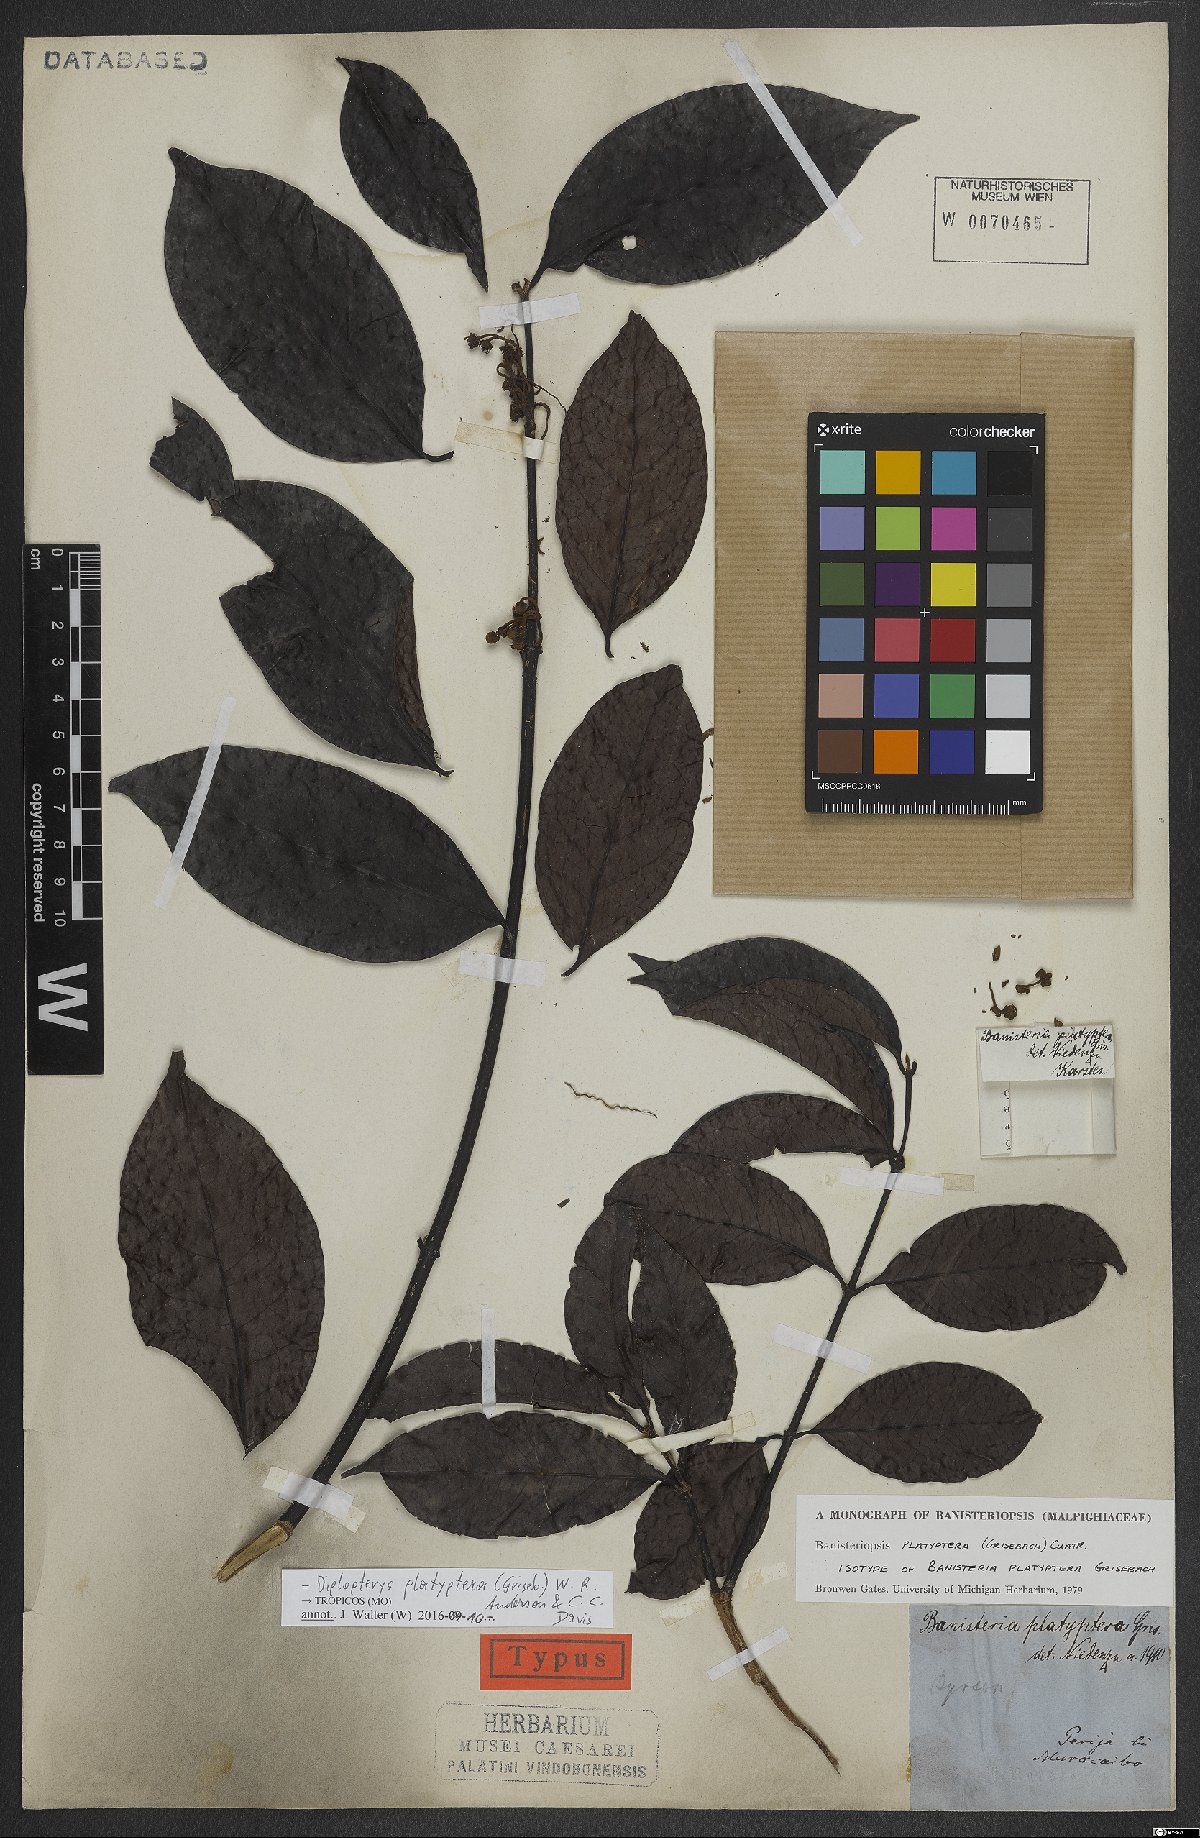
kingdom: Plantae
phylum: Tracheophyta
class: Magnoliopsida
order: Malpighiales
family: Malpighiaceae
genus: Diplopterys
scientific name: Diplopterys platyptera
